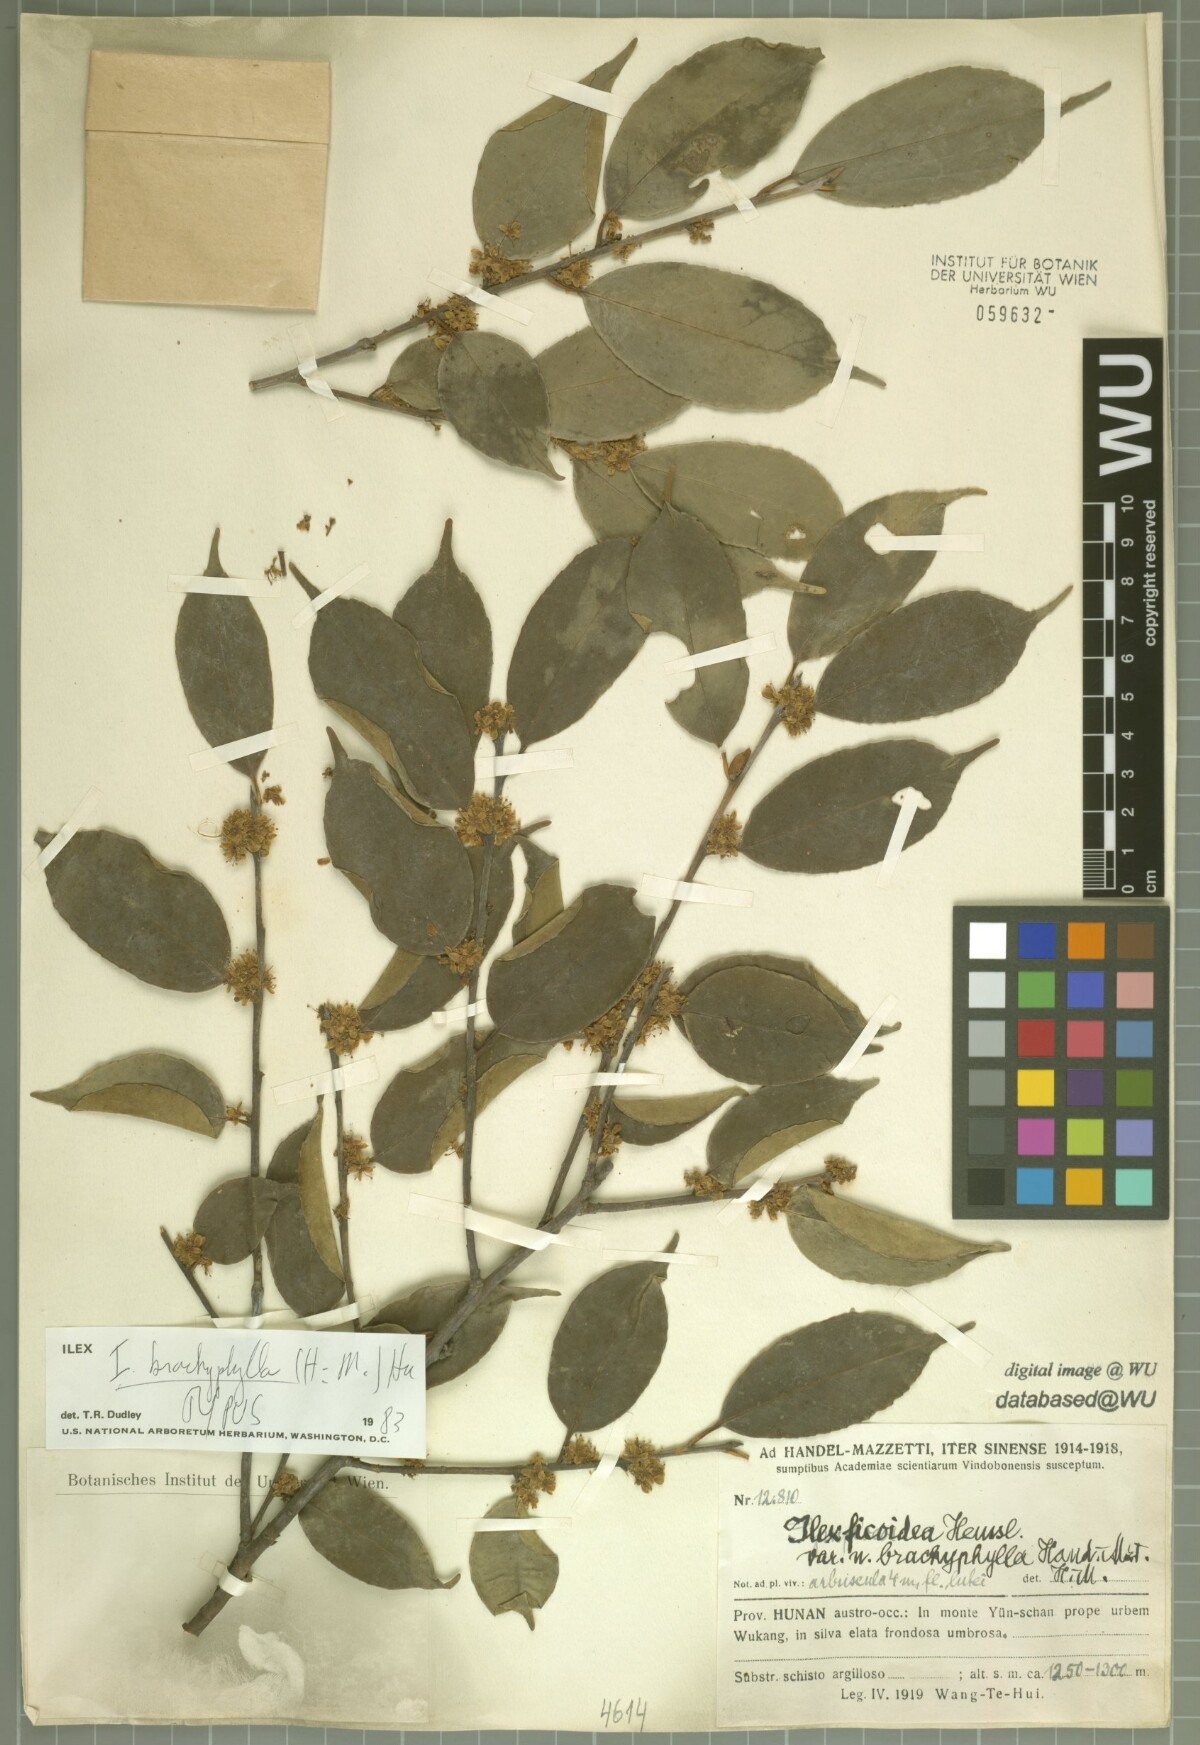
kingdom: Plantae
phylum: Tracheophyta
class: Magnoliopsida
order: Aquifoliales
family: Aquifoliaceae
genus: Ilex
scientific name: Ilex brachyphylla
